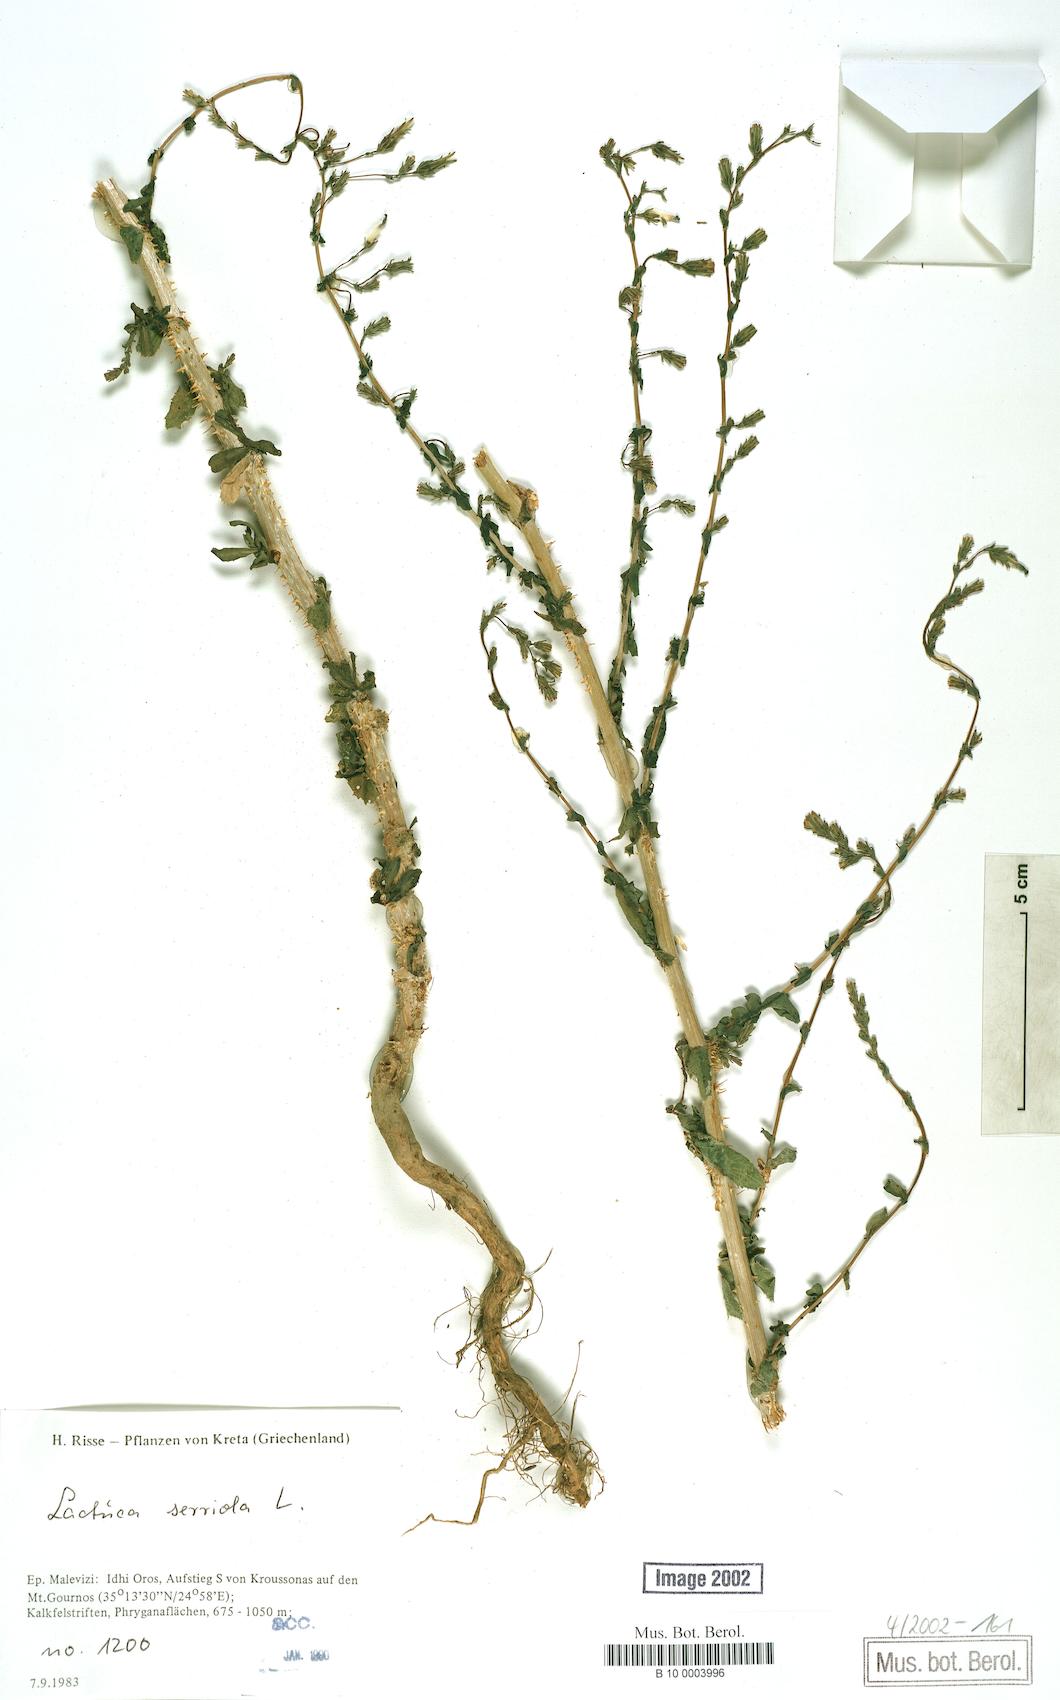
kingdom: Plantae
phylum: Tracheophyta
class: Magnoliopsida
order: Asterales
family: Asteraceae
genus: Lactuca
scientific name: Lactuca serriola
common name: Prickly lettuce
